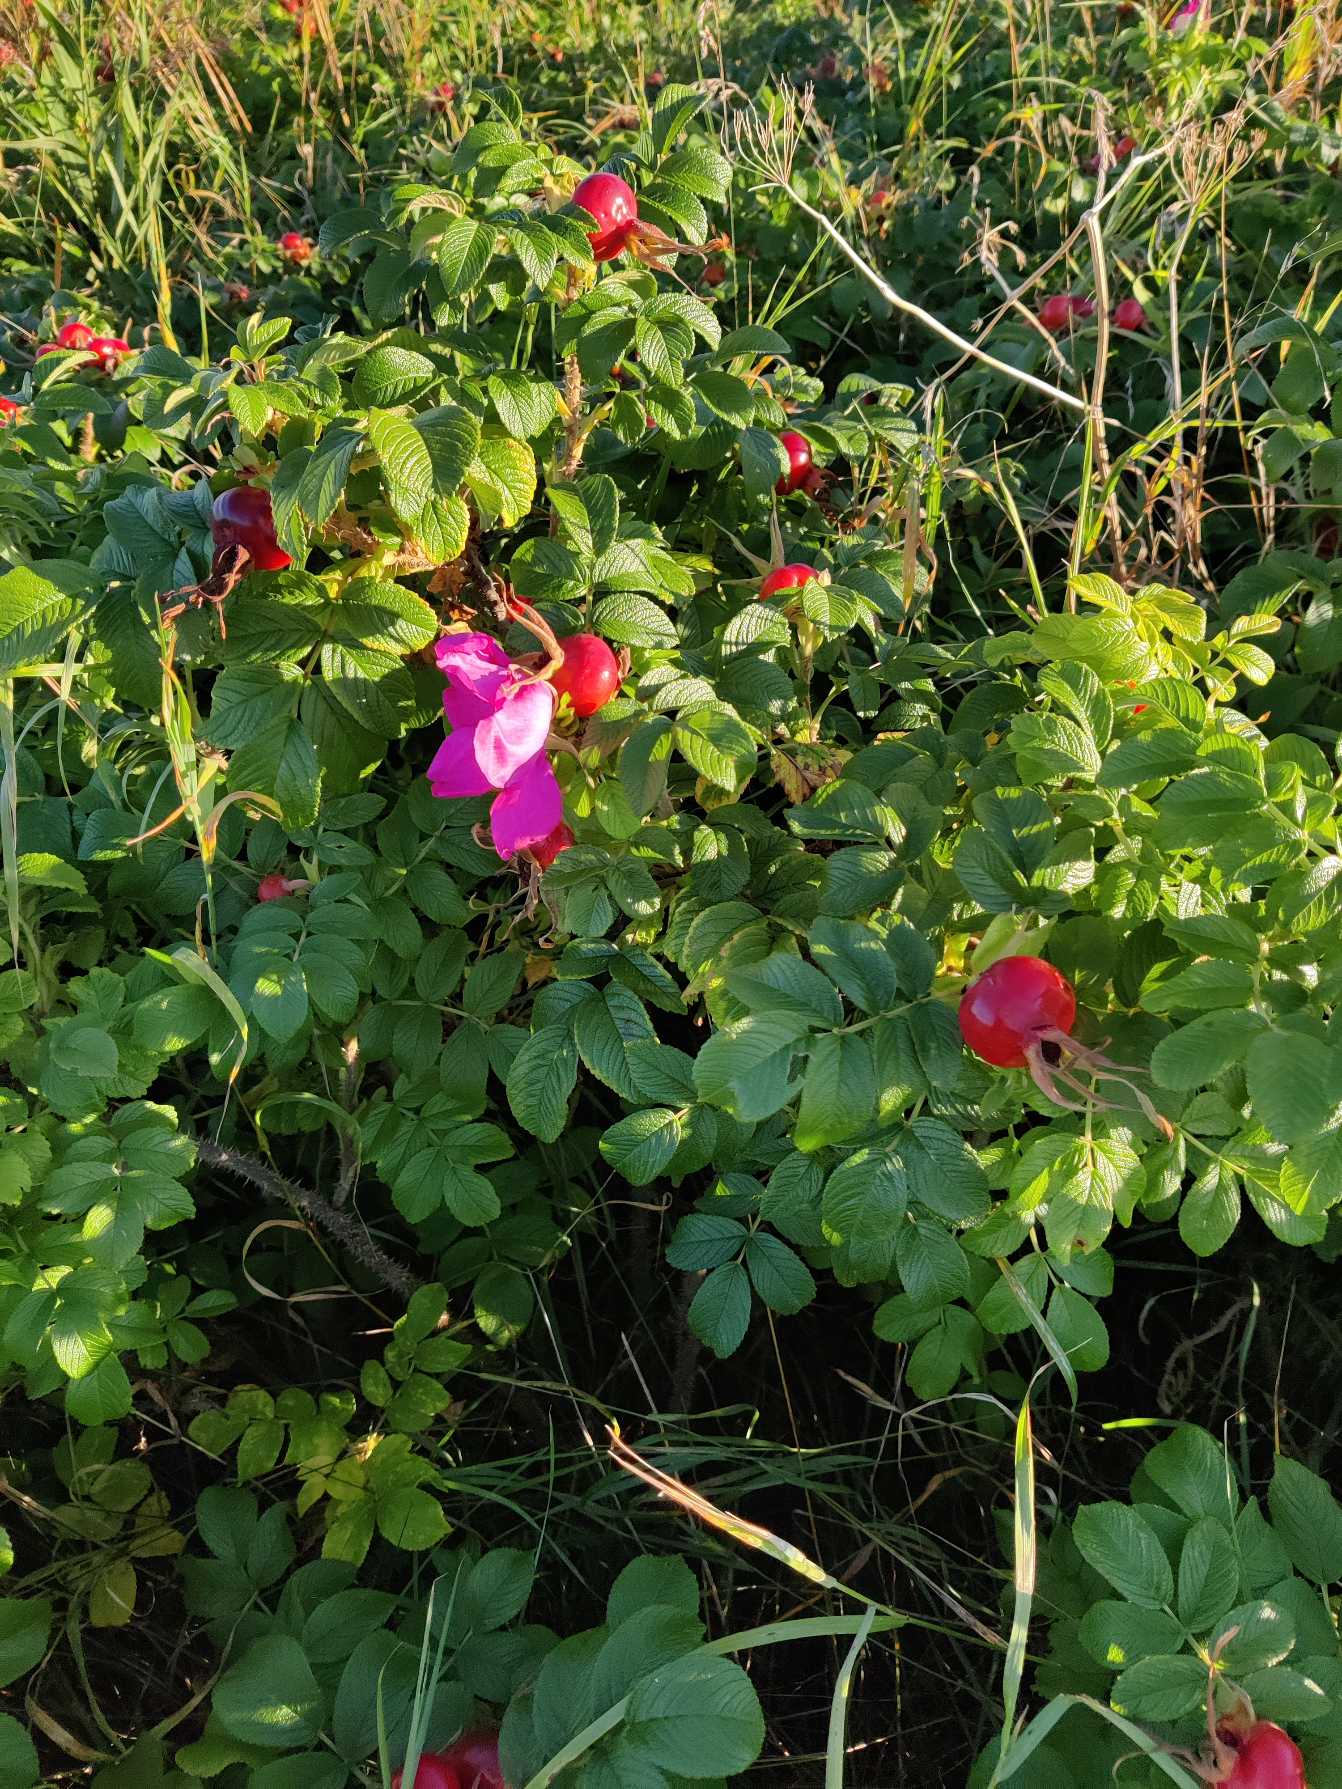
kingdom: Plantae
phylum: Tracheophyta
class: Magnoliopsida
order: Rosales
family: Rosaceae
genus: Rosa
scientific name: Rosa rugosa
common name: Rynket rose
